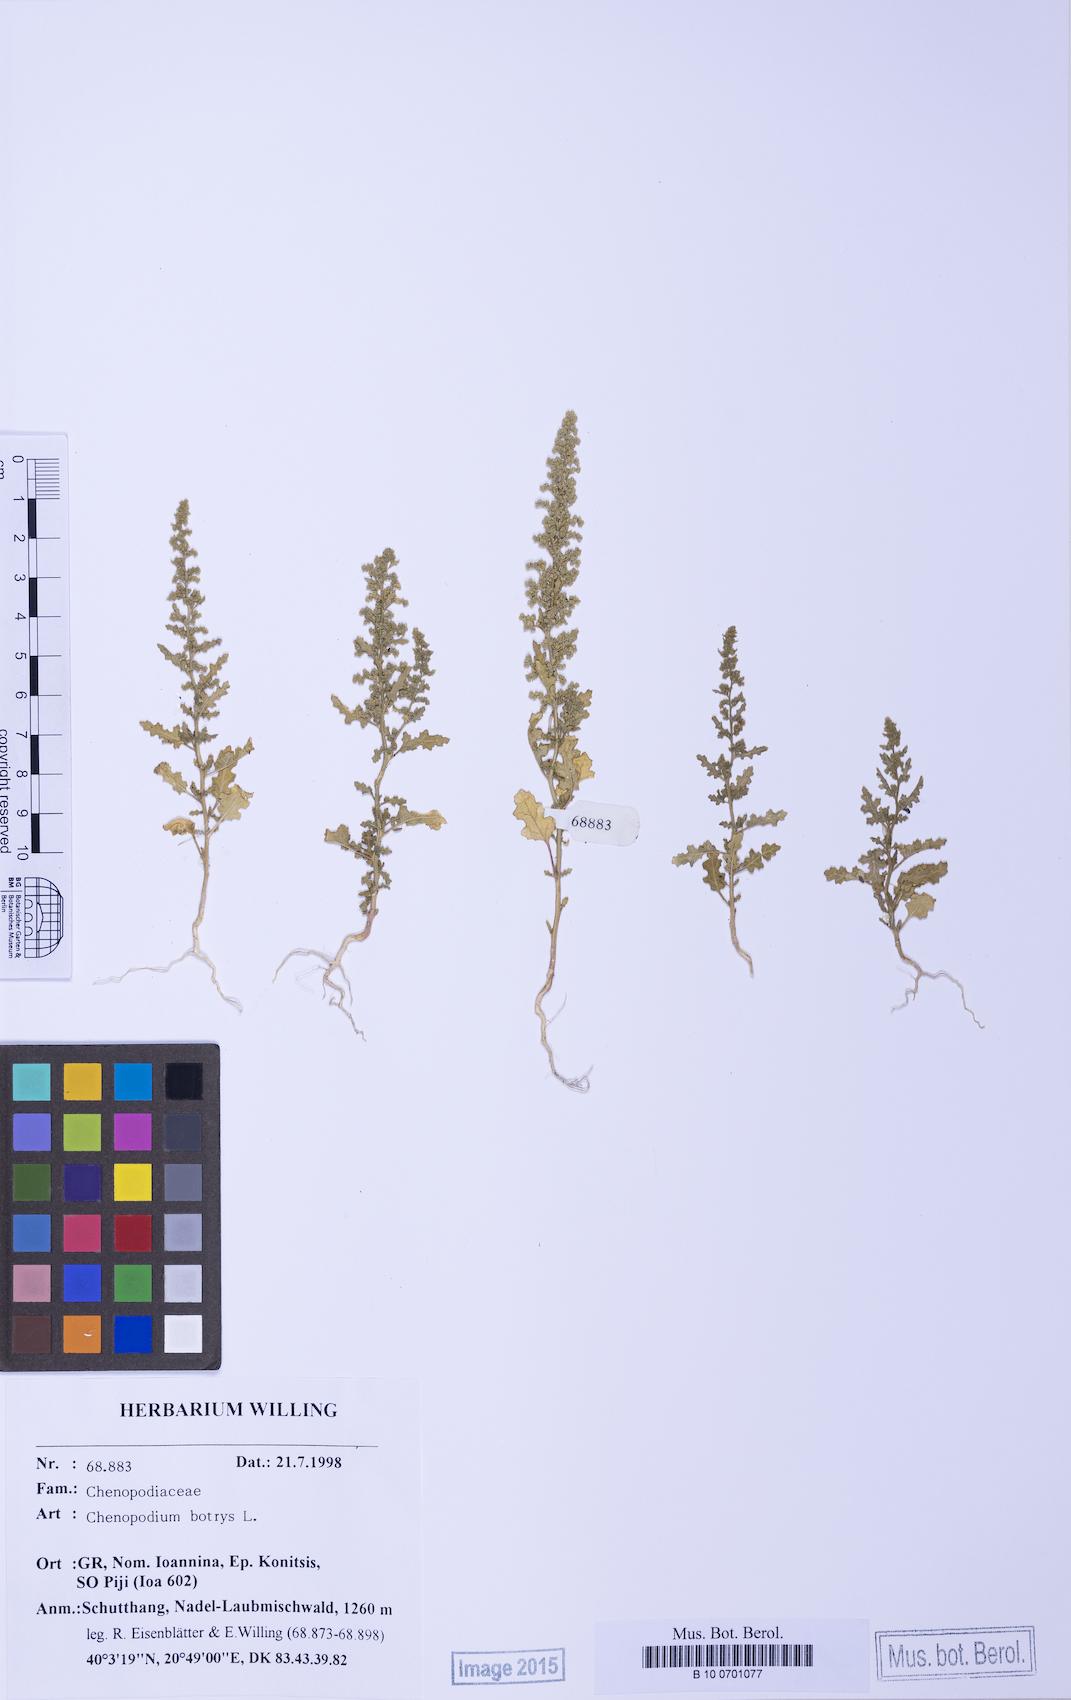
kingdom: Plantae
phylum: Tracheophyta
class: Magnoliopsida
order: Caryophyllales
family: Amaranthaceae
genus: Dysphania
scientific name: Dysphania botrys
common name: Feather-geranium
